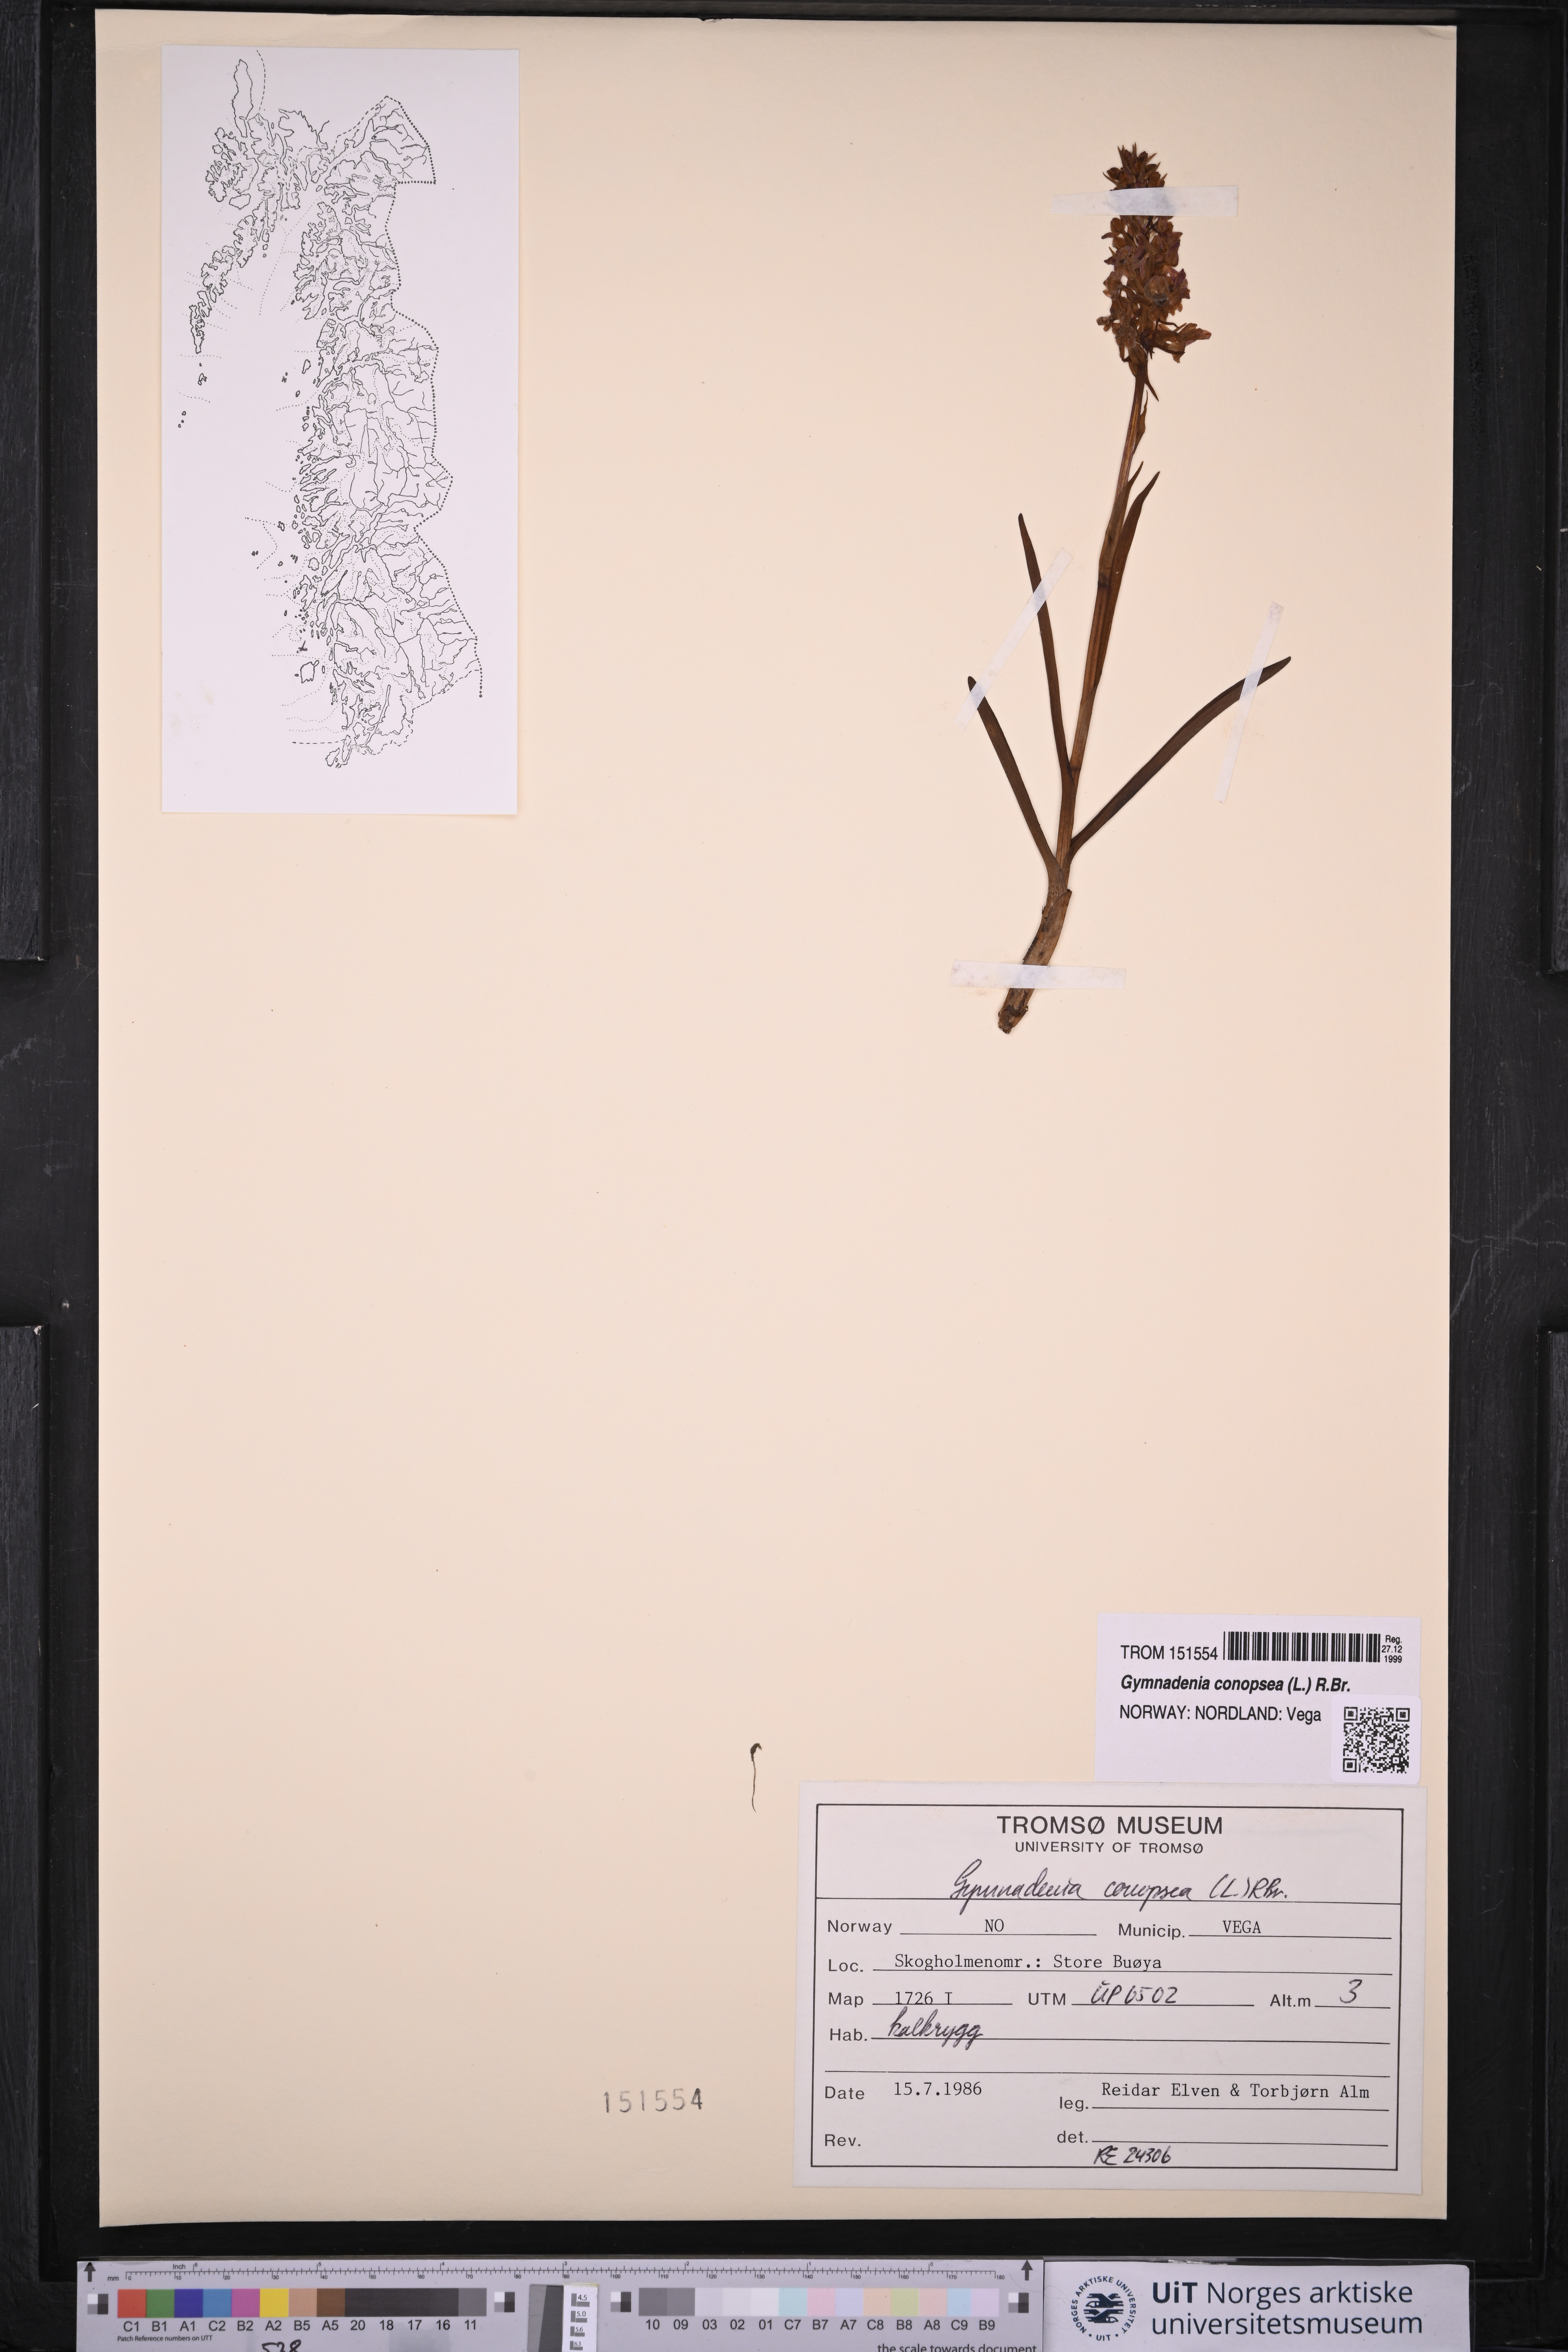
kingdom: Plantae
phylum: Tracheophyta
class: Liliopsida
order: Asparagales
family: Orchidaceae
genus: Gymnadenia
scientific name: Gymnadenia conopsea
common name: Fragrant orchid
